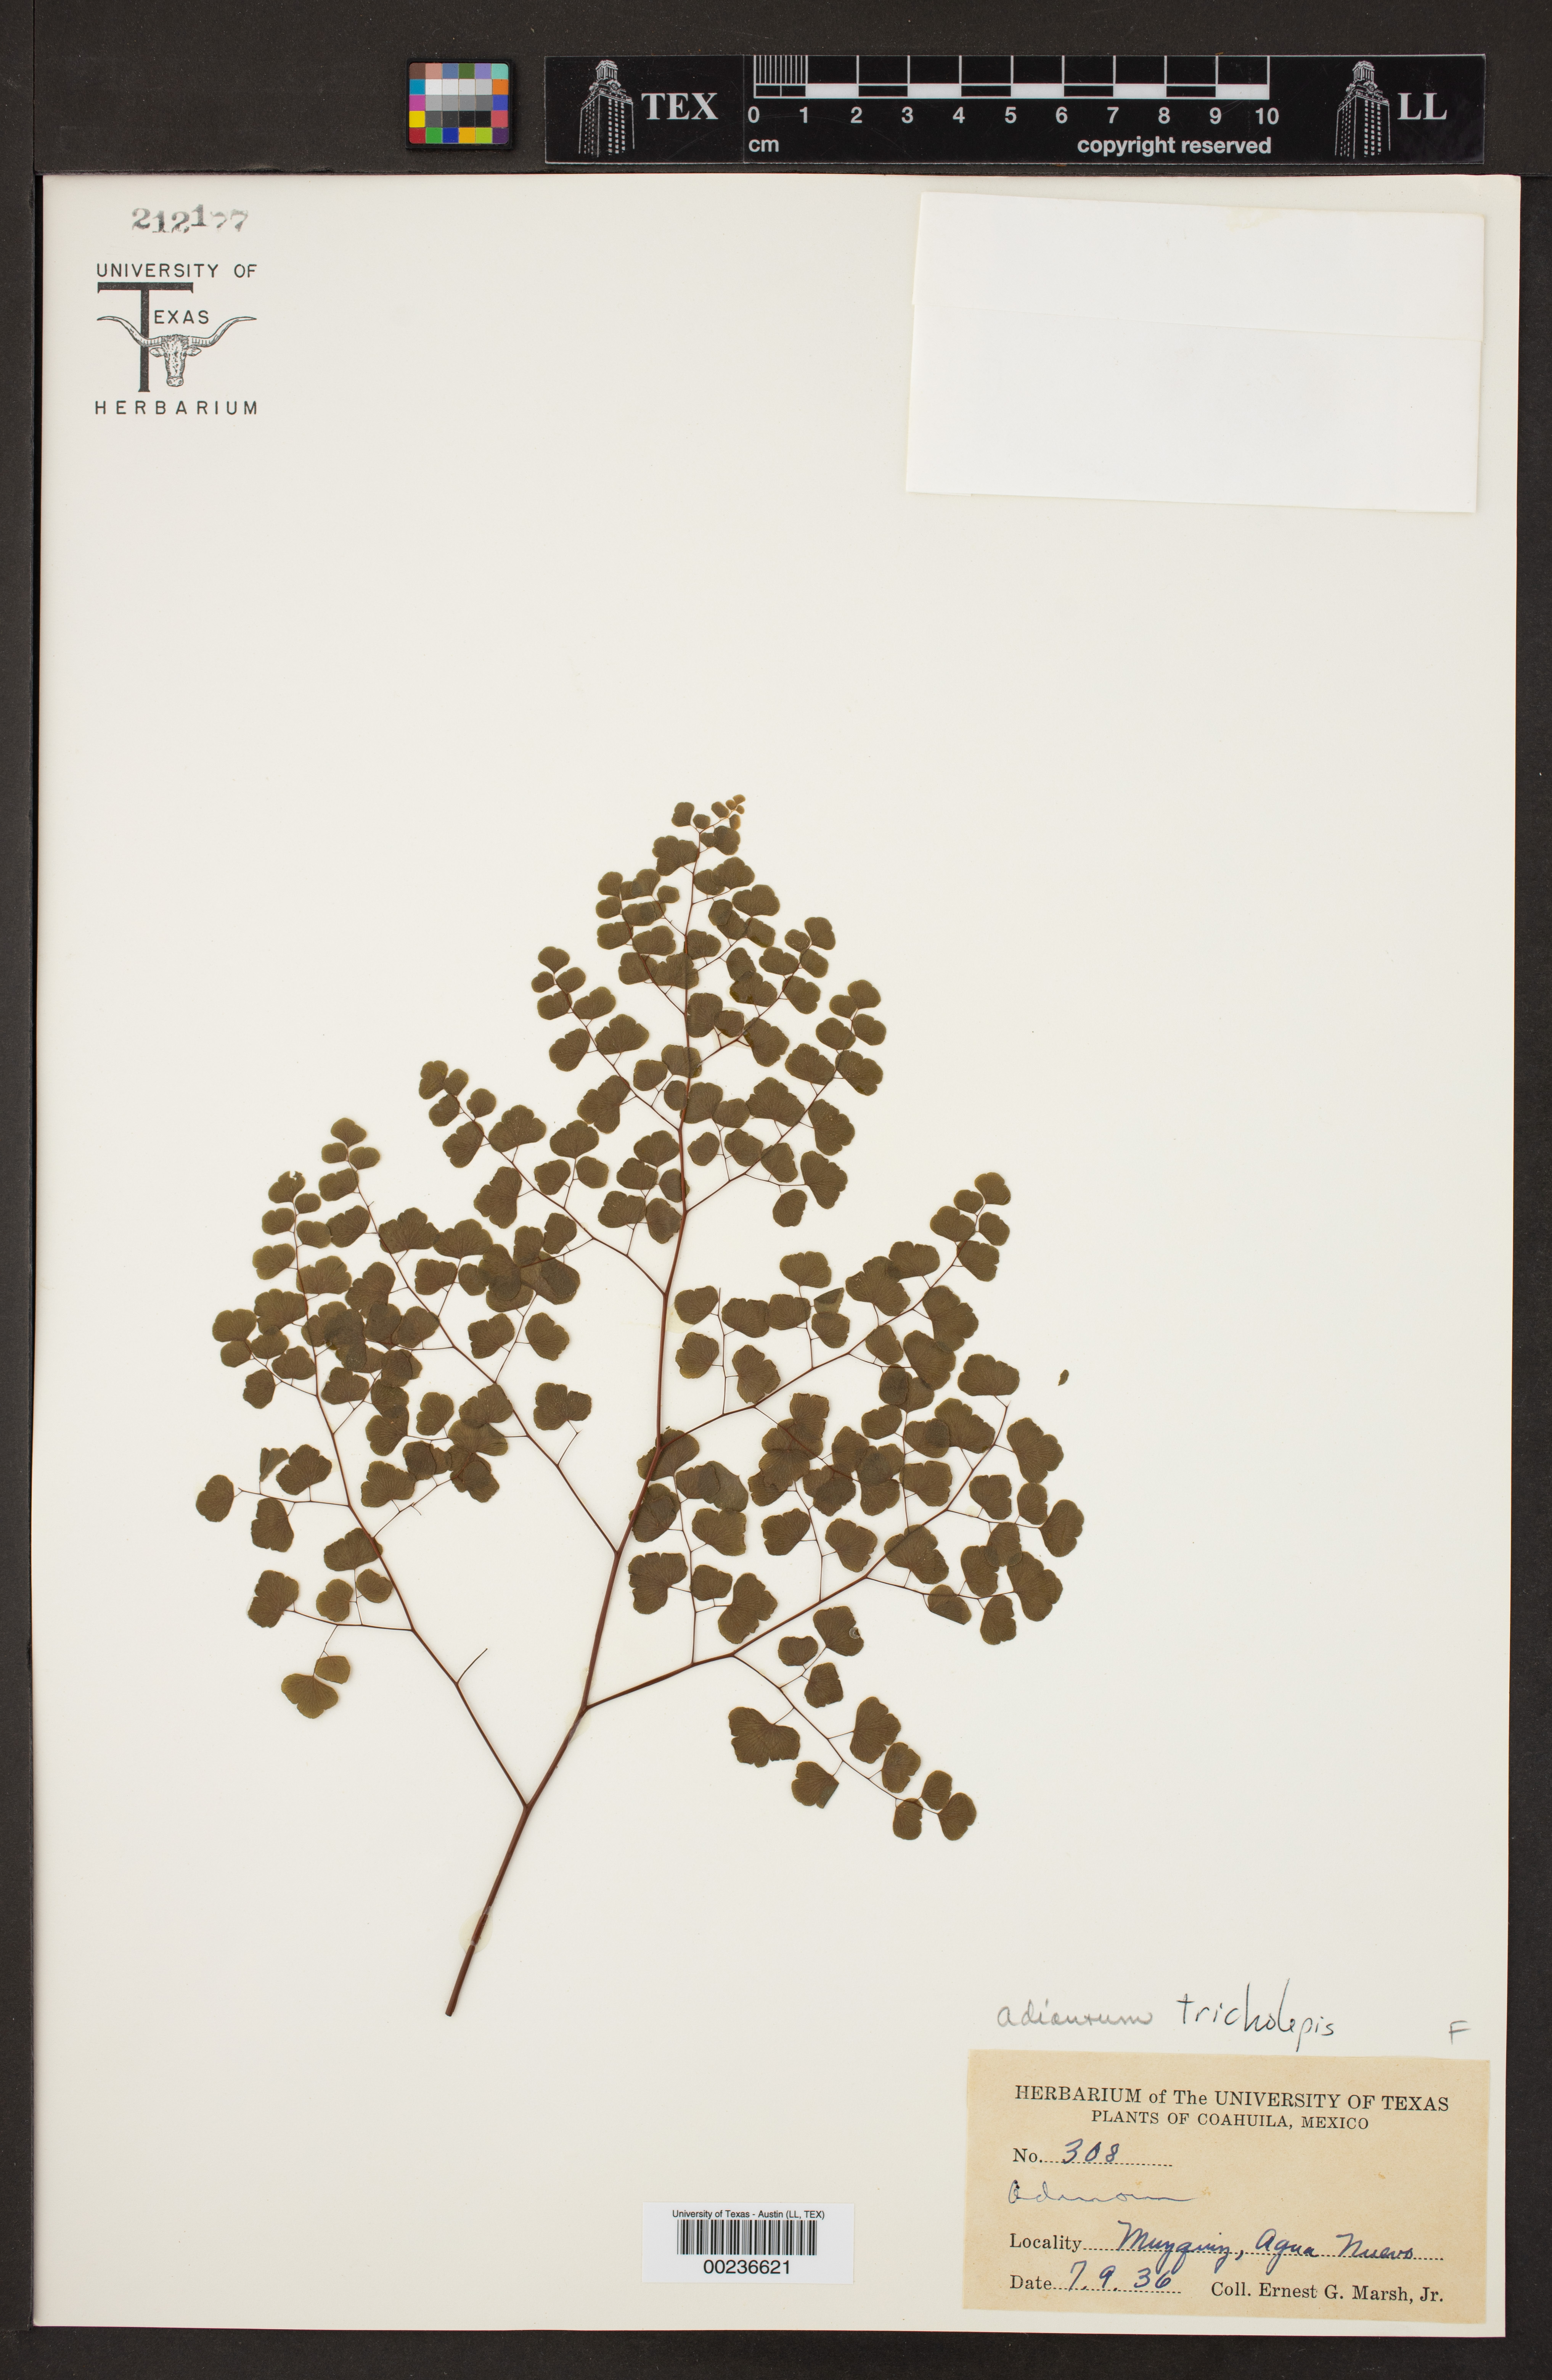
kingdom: Plantae
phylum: Tracheophyta
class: Polypodiopsida
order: Polypodiales
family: Pteridaceae
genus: Adiantum
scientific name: Adiantum tricholepis
